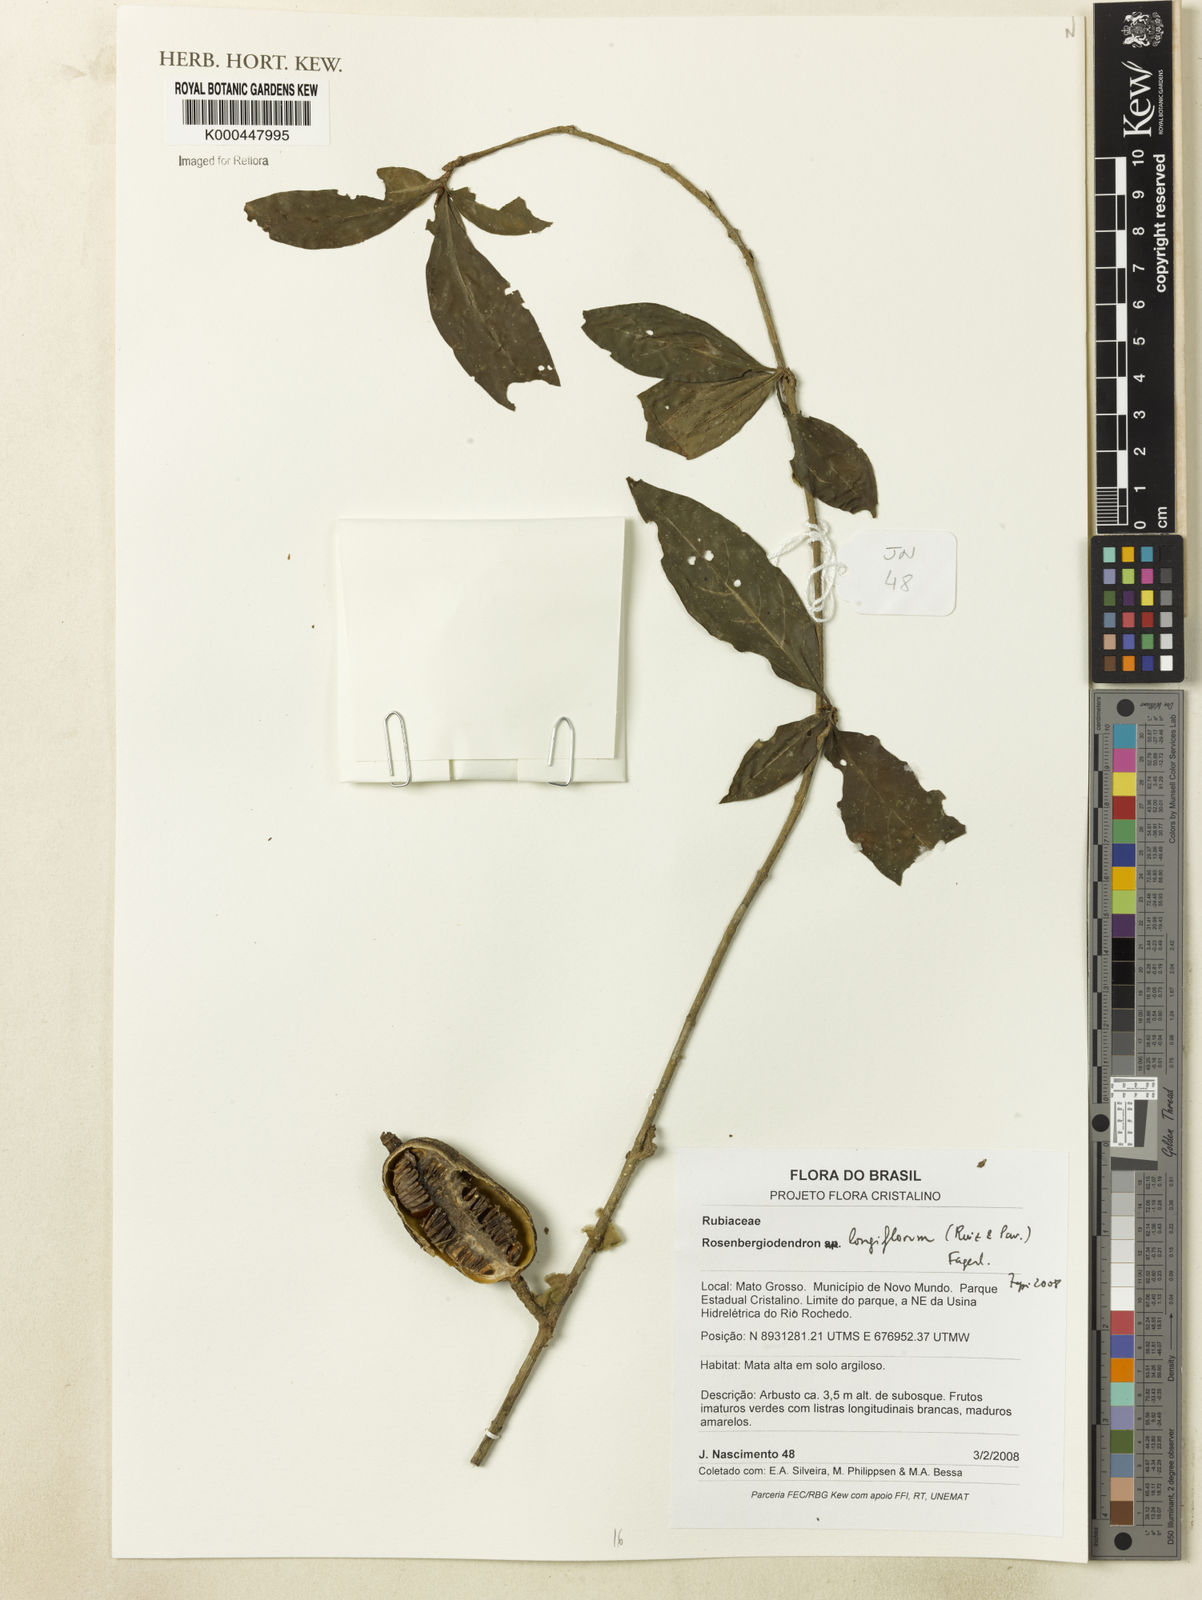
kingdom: Plantae
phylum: Tracheophyta
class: Magnoliopsida
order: Gentianales
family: Rubiaceae
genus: Rosenbergiodendron
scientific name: Rosenbergiodendron longiflorum
